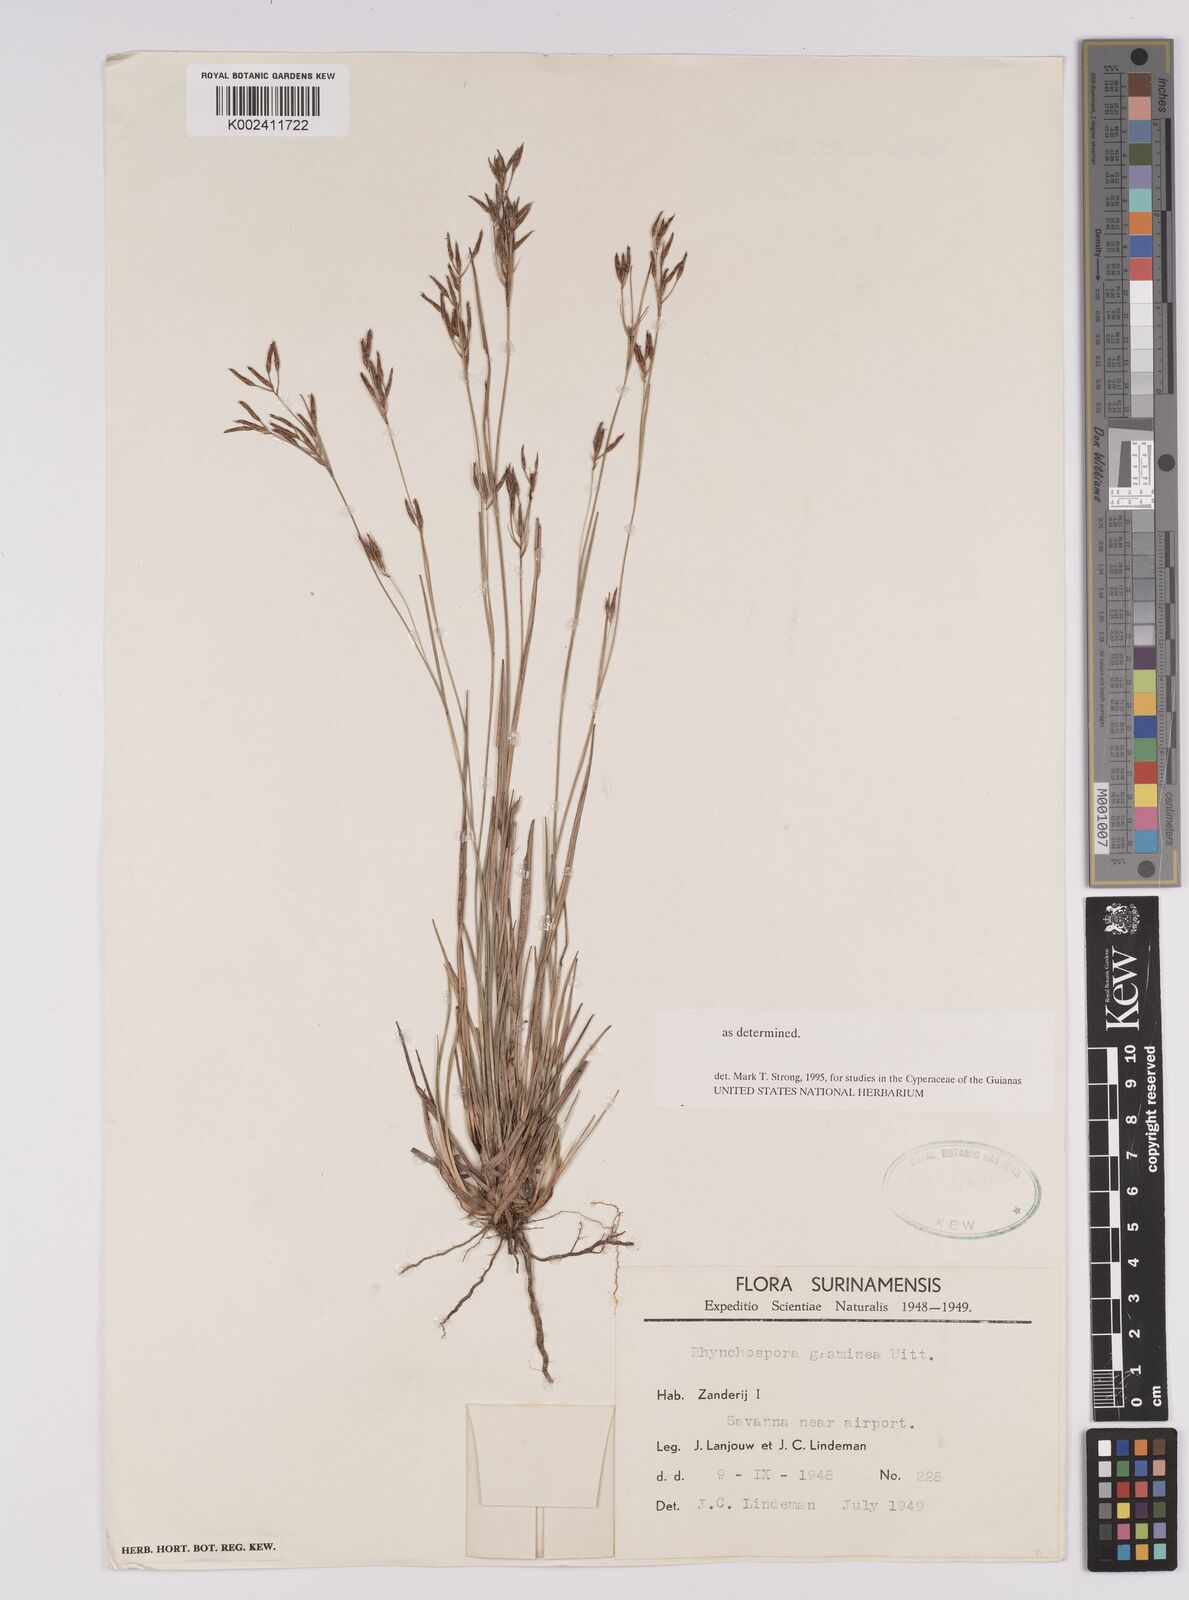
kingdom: Plantae
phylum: Tracheophyta
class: Liliopsida
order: Poales
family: Cyperaceae
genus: Rhynchospora
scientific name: Rhynchospora spruceana
